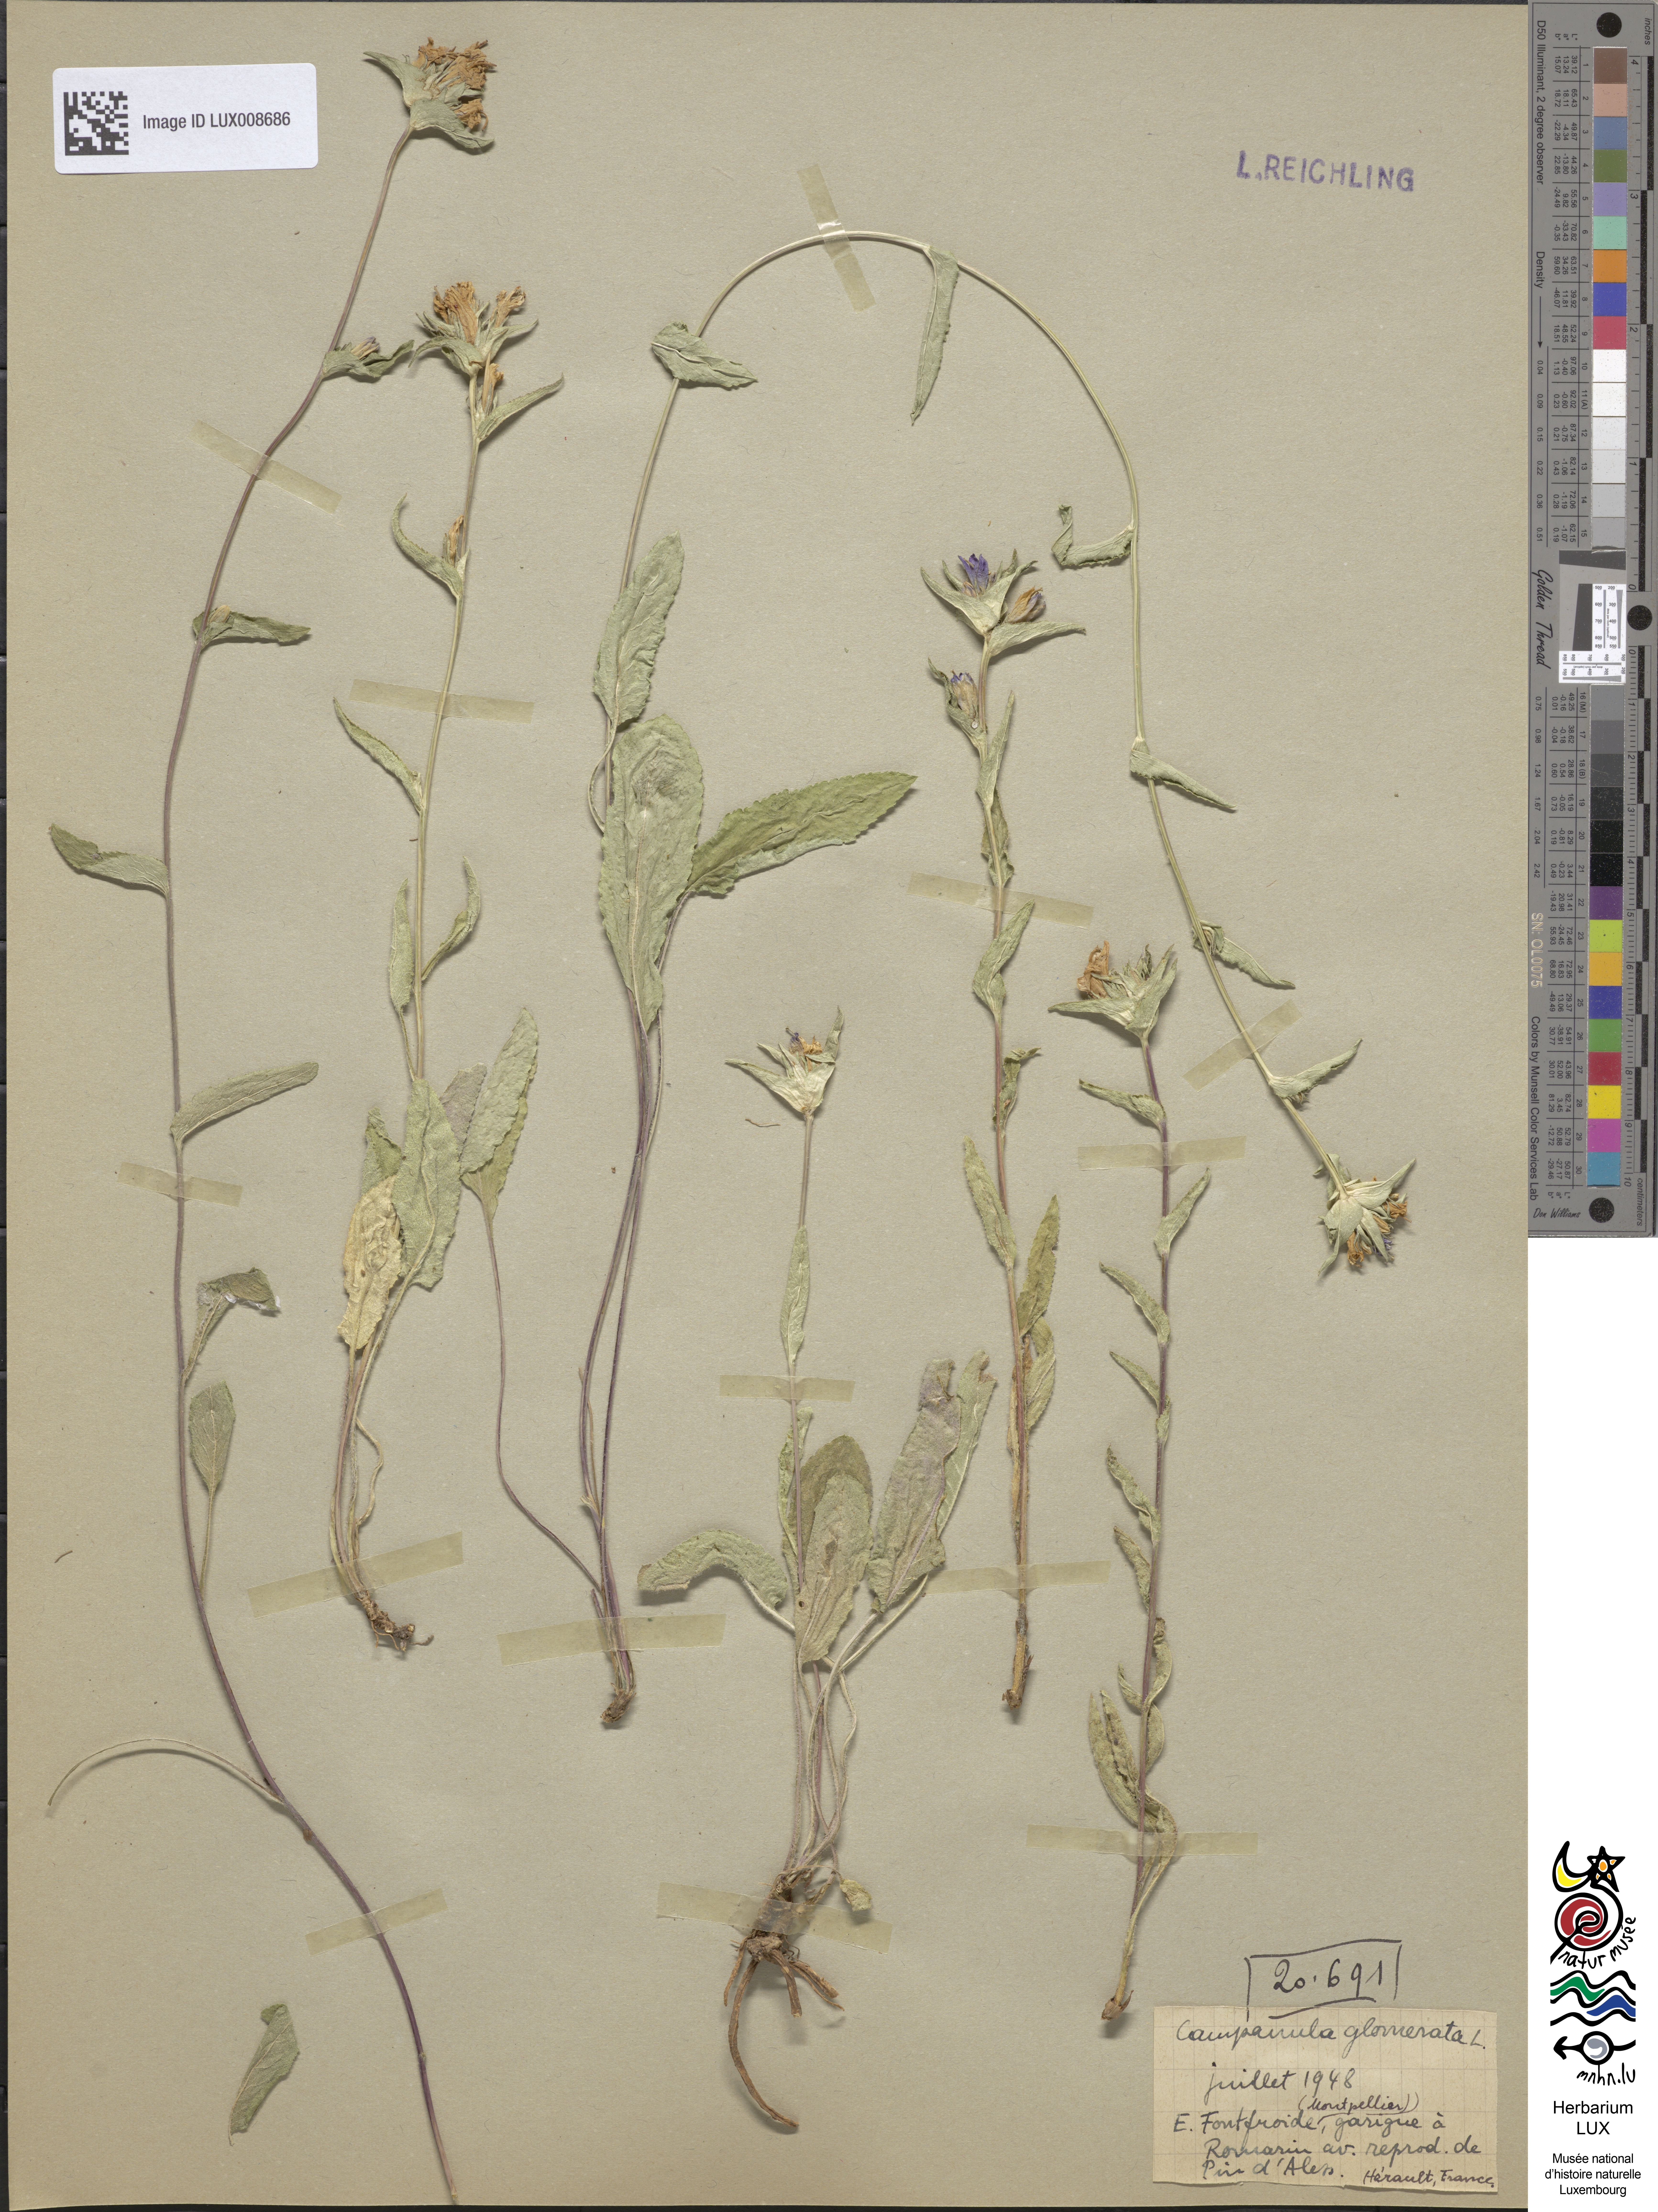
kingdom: Plantae
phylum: Tracheophyta
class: Magnoliopsida
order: Asterales
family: Campanulaceae
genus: Campanula
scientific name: Campanula glomerata
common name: Clustered bellflower
